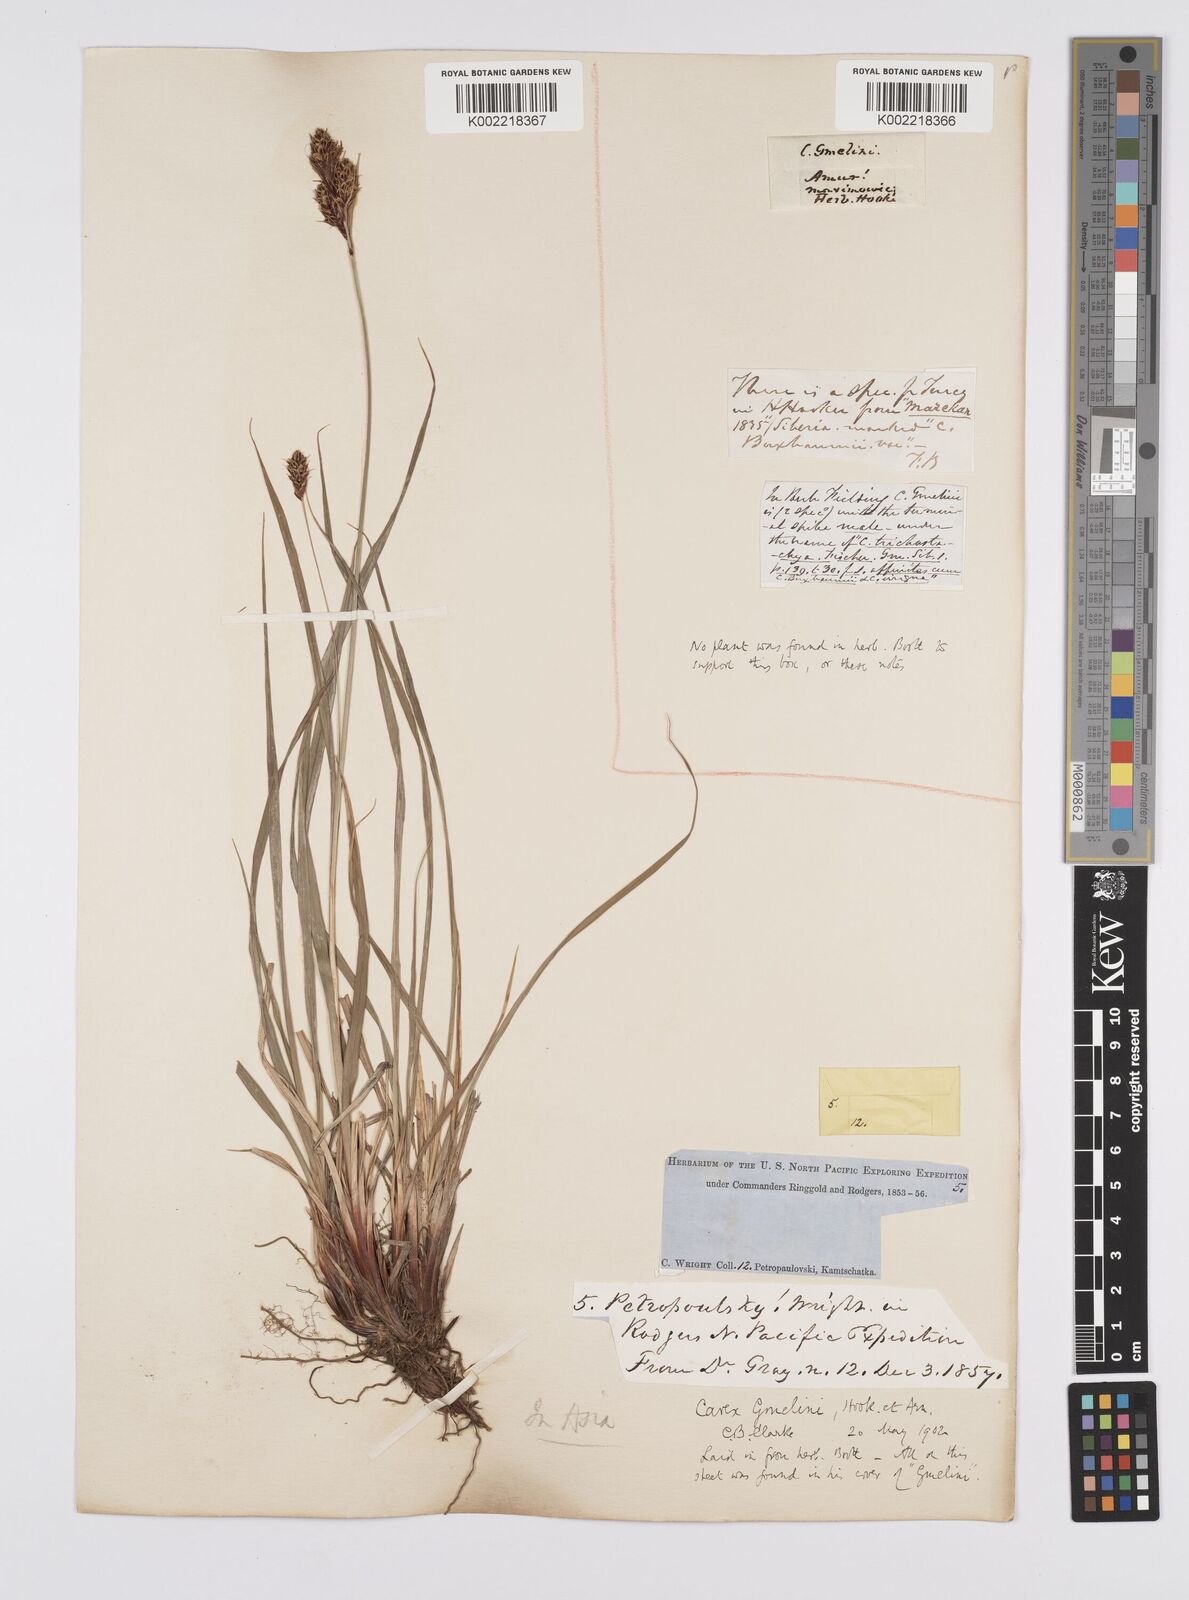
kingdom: Plantae
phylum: Tracheophyta
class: Liliopsida
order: Poales
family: Cyperaceae
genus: Carex
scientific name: Carex gmelinii
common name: Gmelin's sedge
